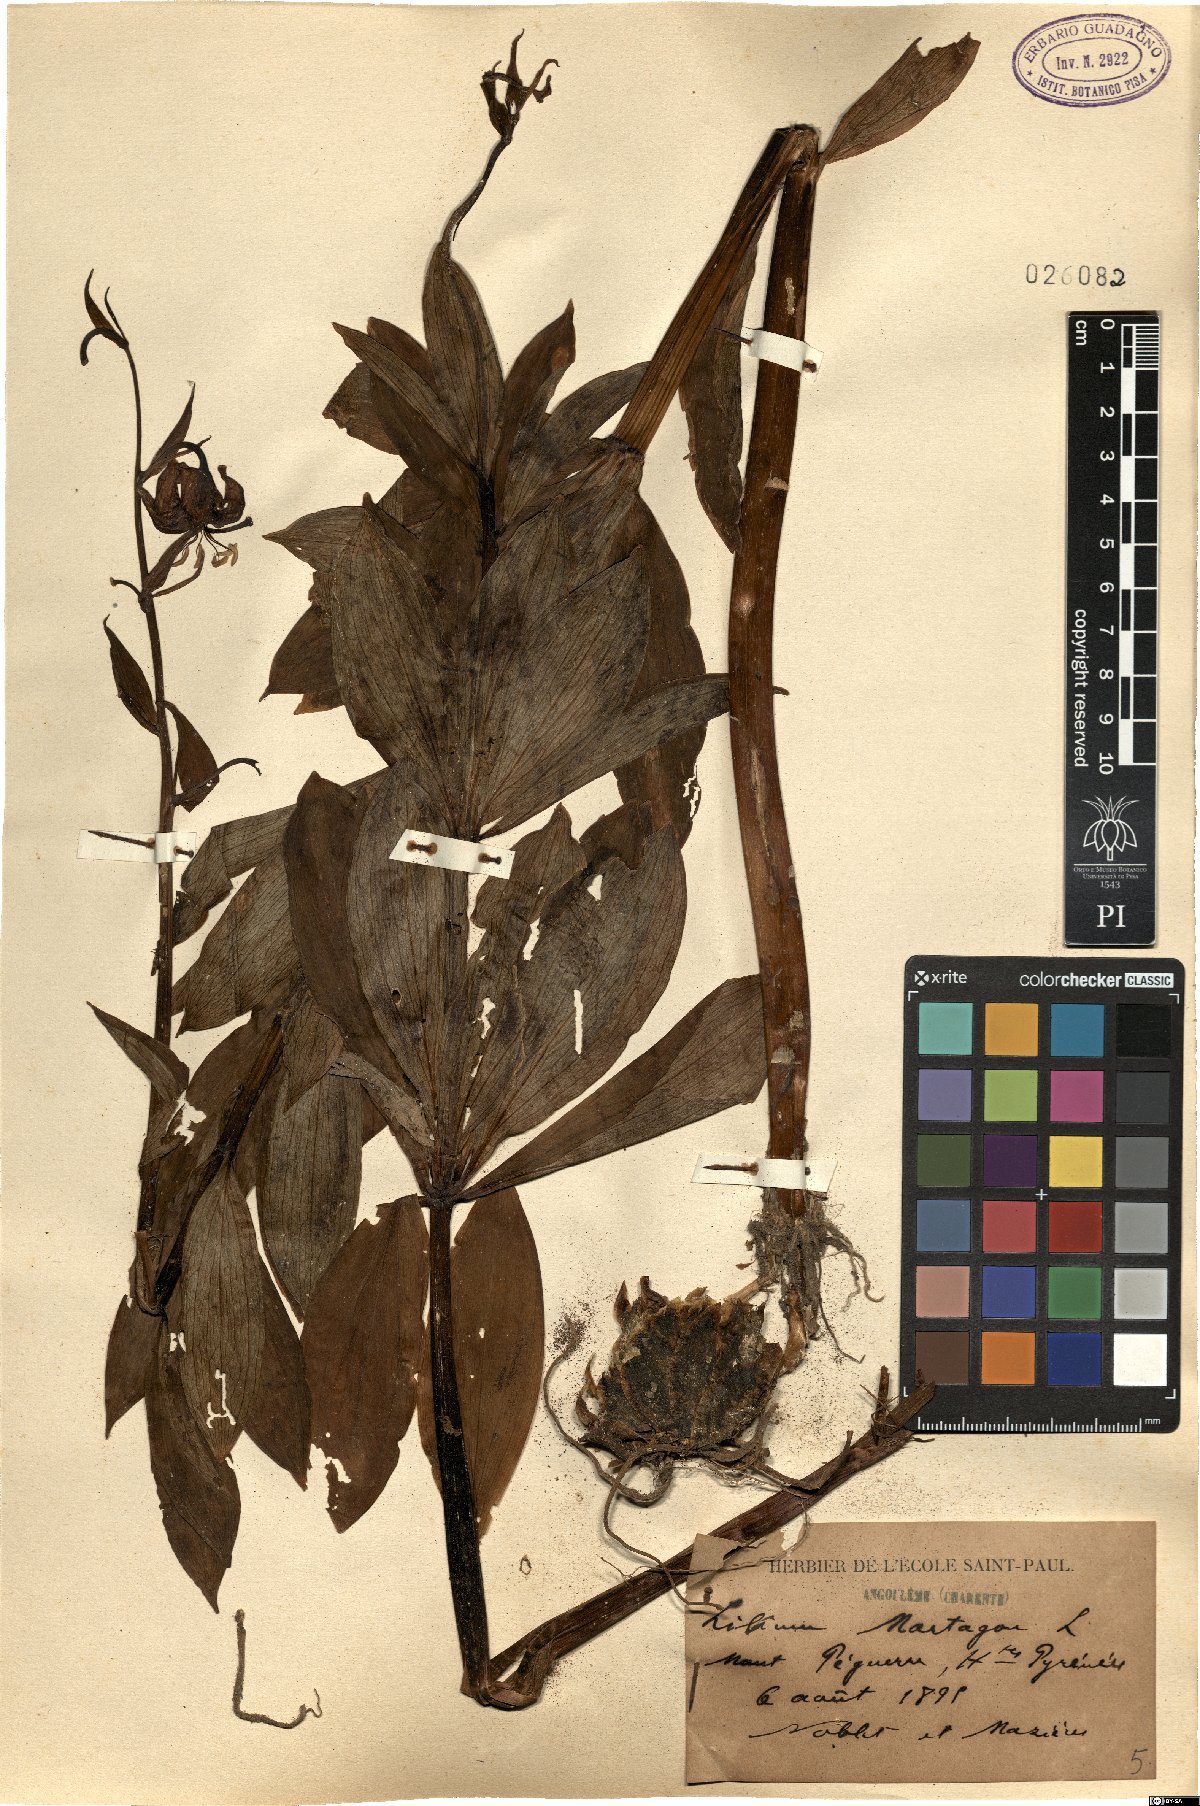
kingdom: Plantae
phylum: Tracheophyta
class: Liliopsida
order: Liliales
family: Liliaceae
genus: Lilium
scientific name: Lilium martagon
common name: Martagon lily
